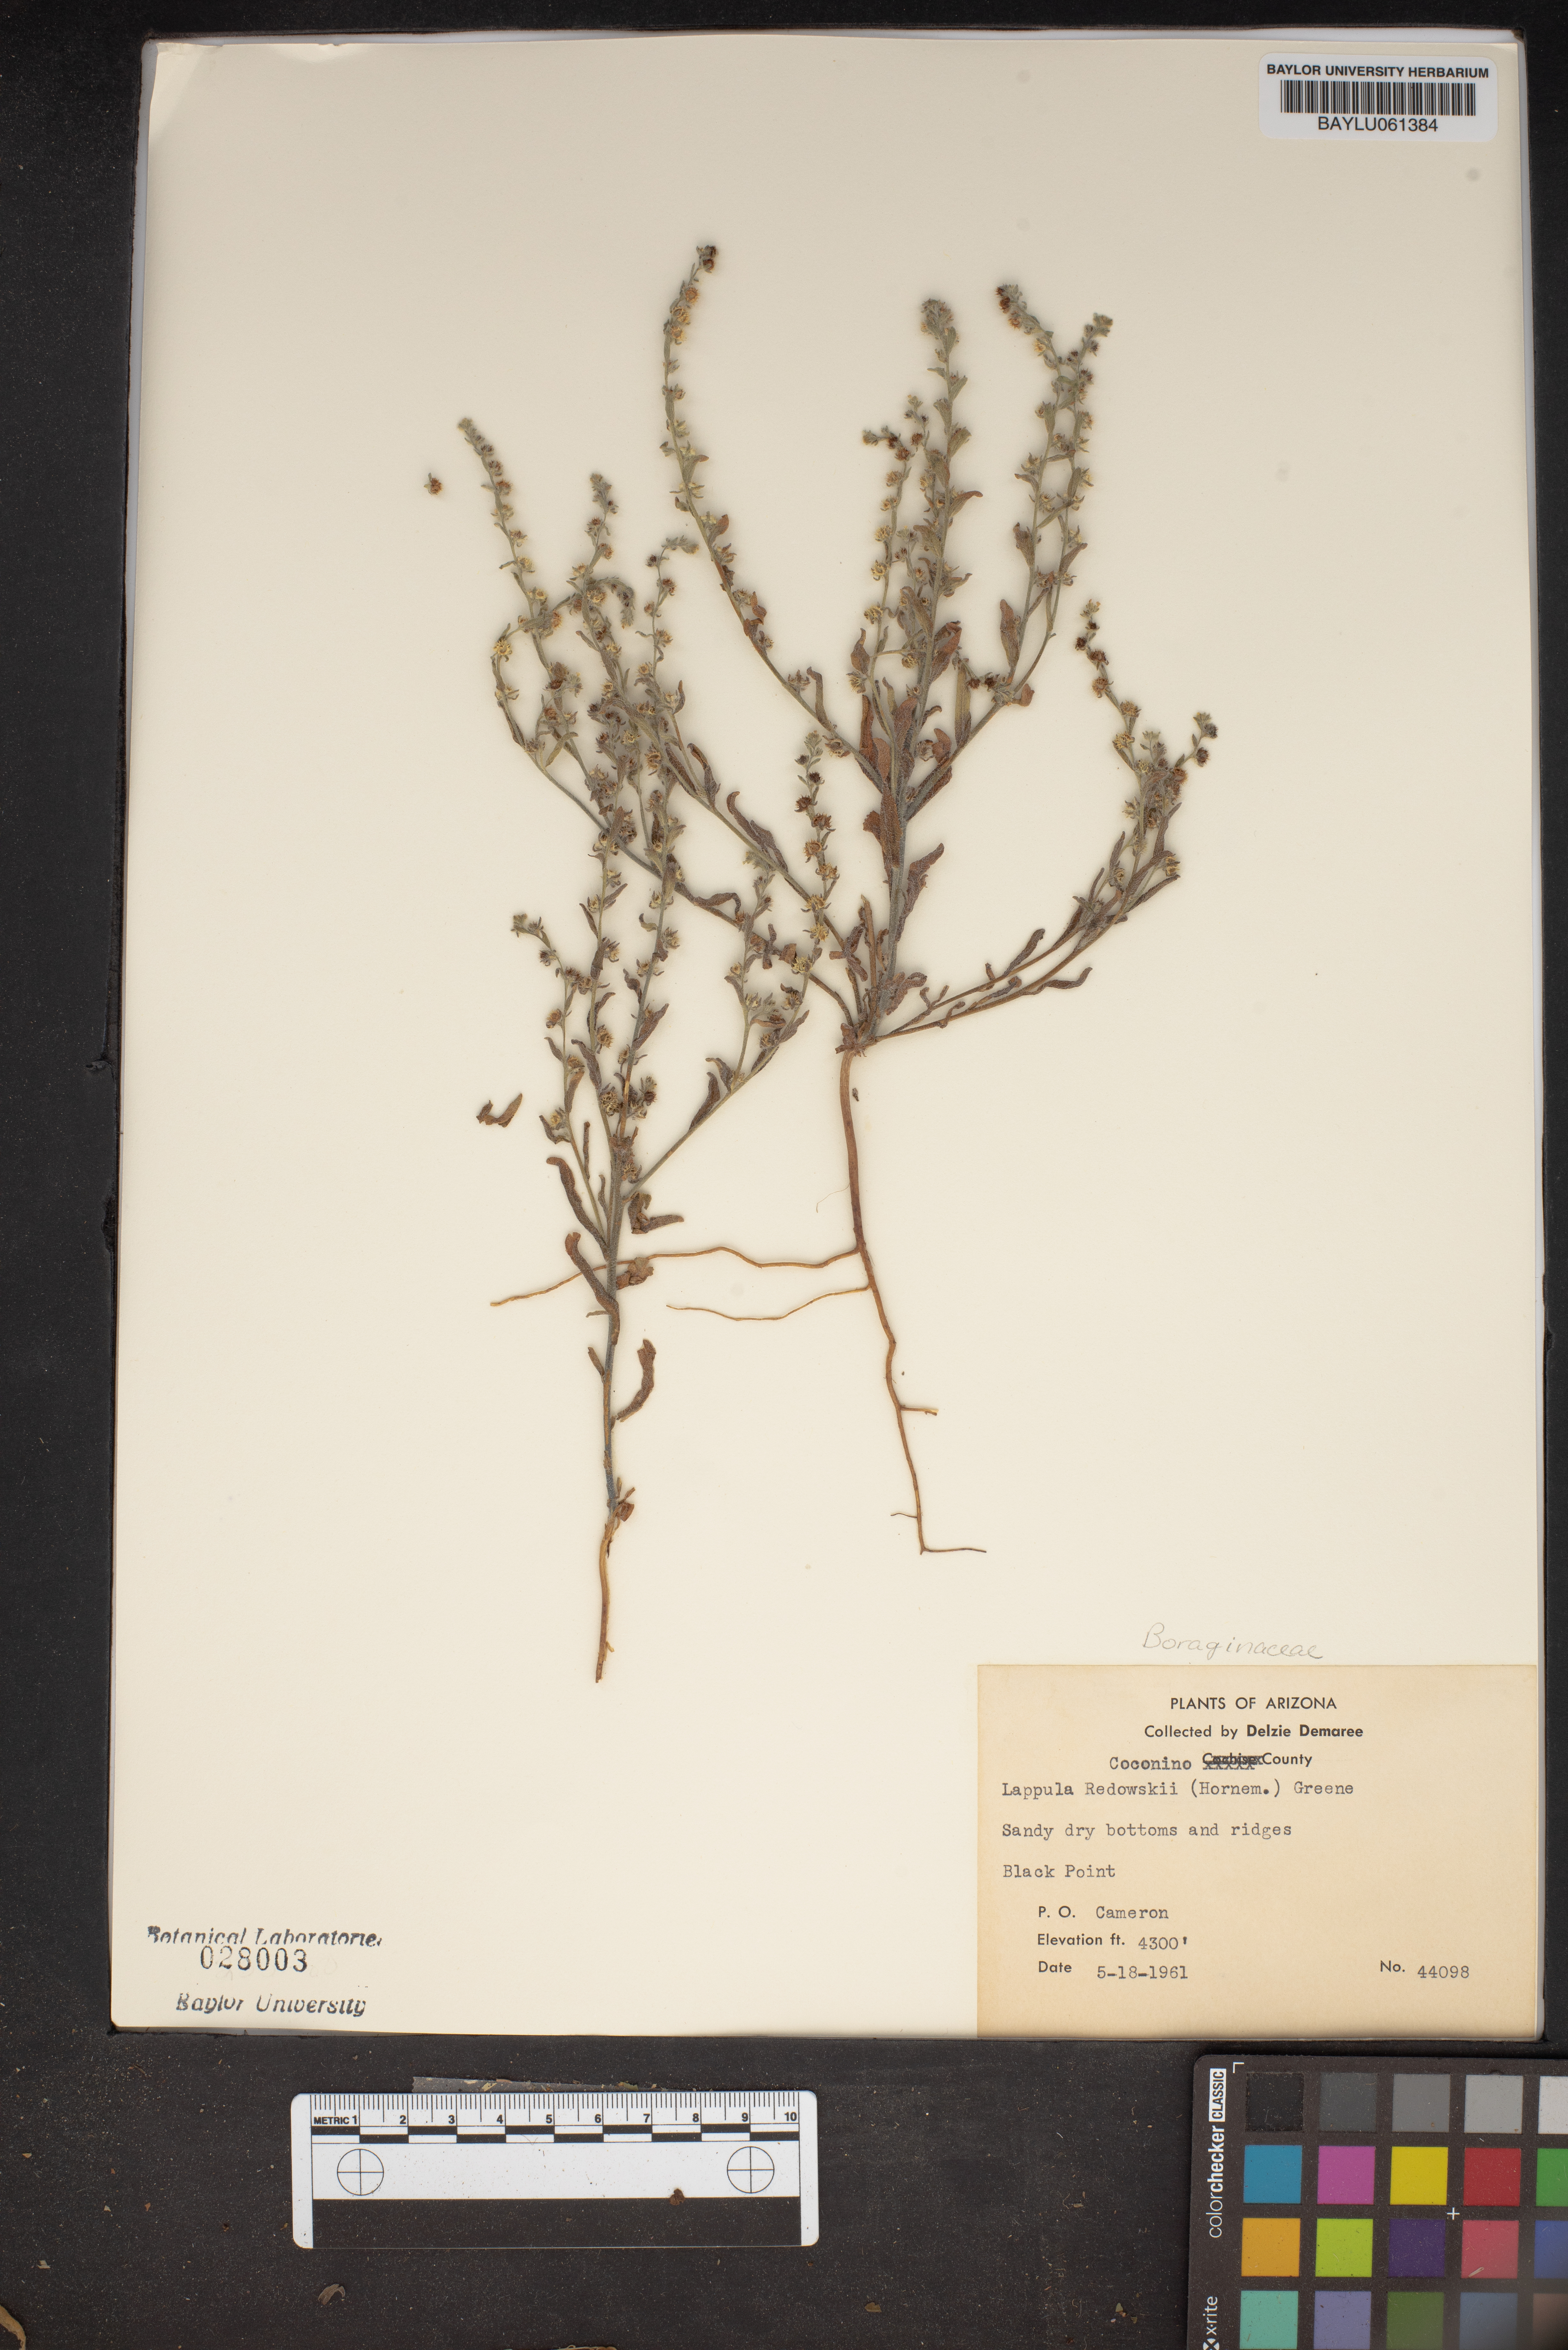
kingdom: Plantae
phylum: Tracheophyta
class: Magnoliopsida
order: Boraginales
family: Boraginaceae
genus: Lappula
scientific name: Lappula redowskii
